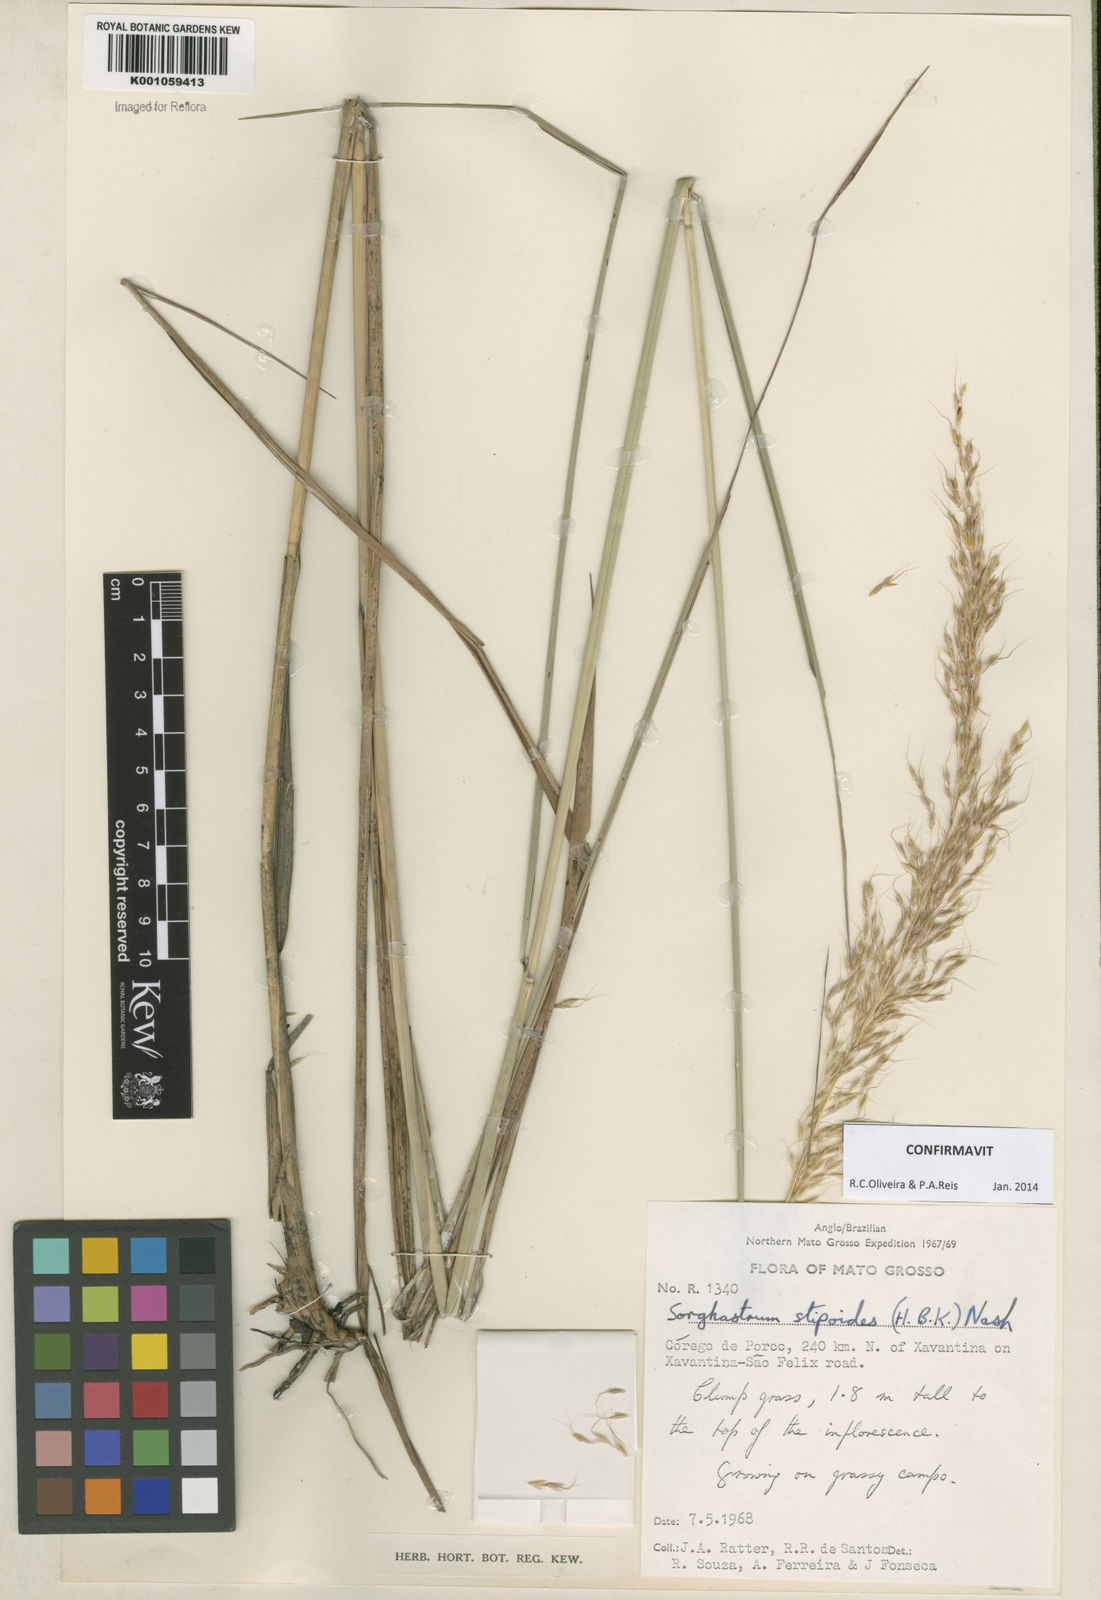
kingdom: Plantae
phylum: Tracheophyta
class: Liliopsida
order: Poales
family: Poaceae
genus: Sorghastrum
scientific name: Sorghastrum stipoides
